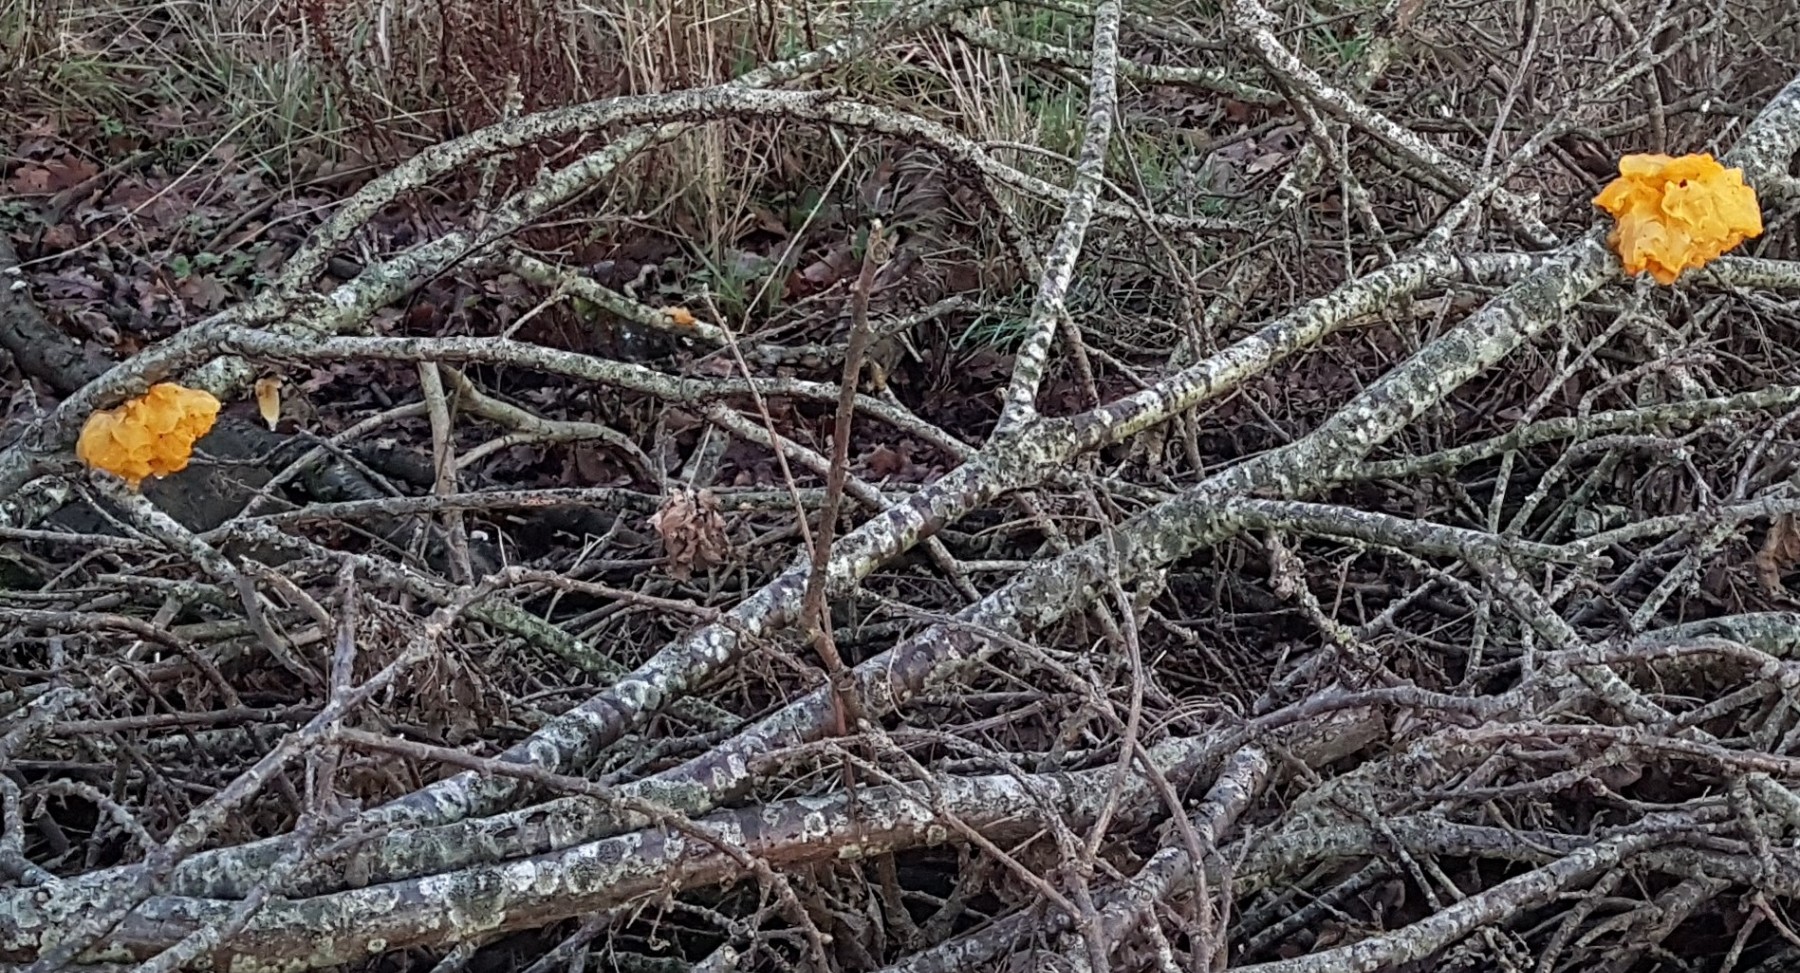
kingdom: Fungi
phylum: Basidiomycota
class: Tremellomycetes
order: Tremellales
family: Tremellaceae
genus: Tremella
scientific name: Tremella mesenterica
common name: gul bævresvamp
